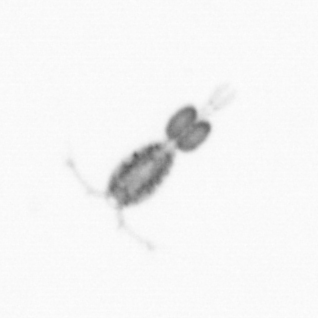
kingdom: Animalia
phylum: Arthropoda
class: Copepoda
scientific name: Copepoda
